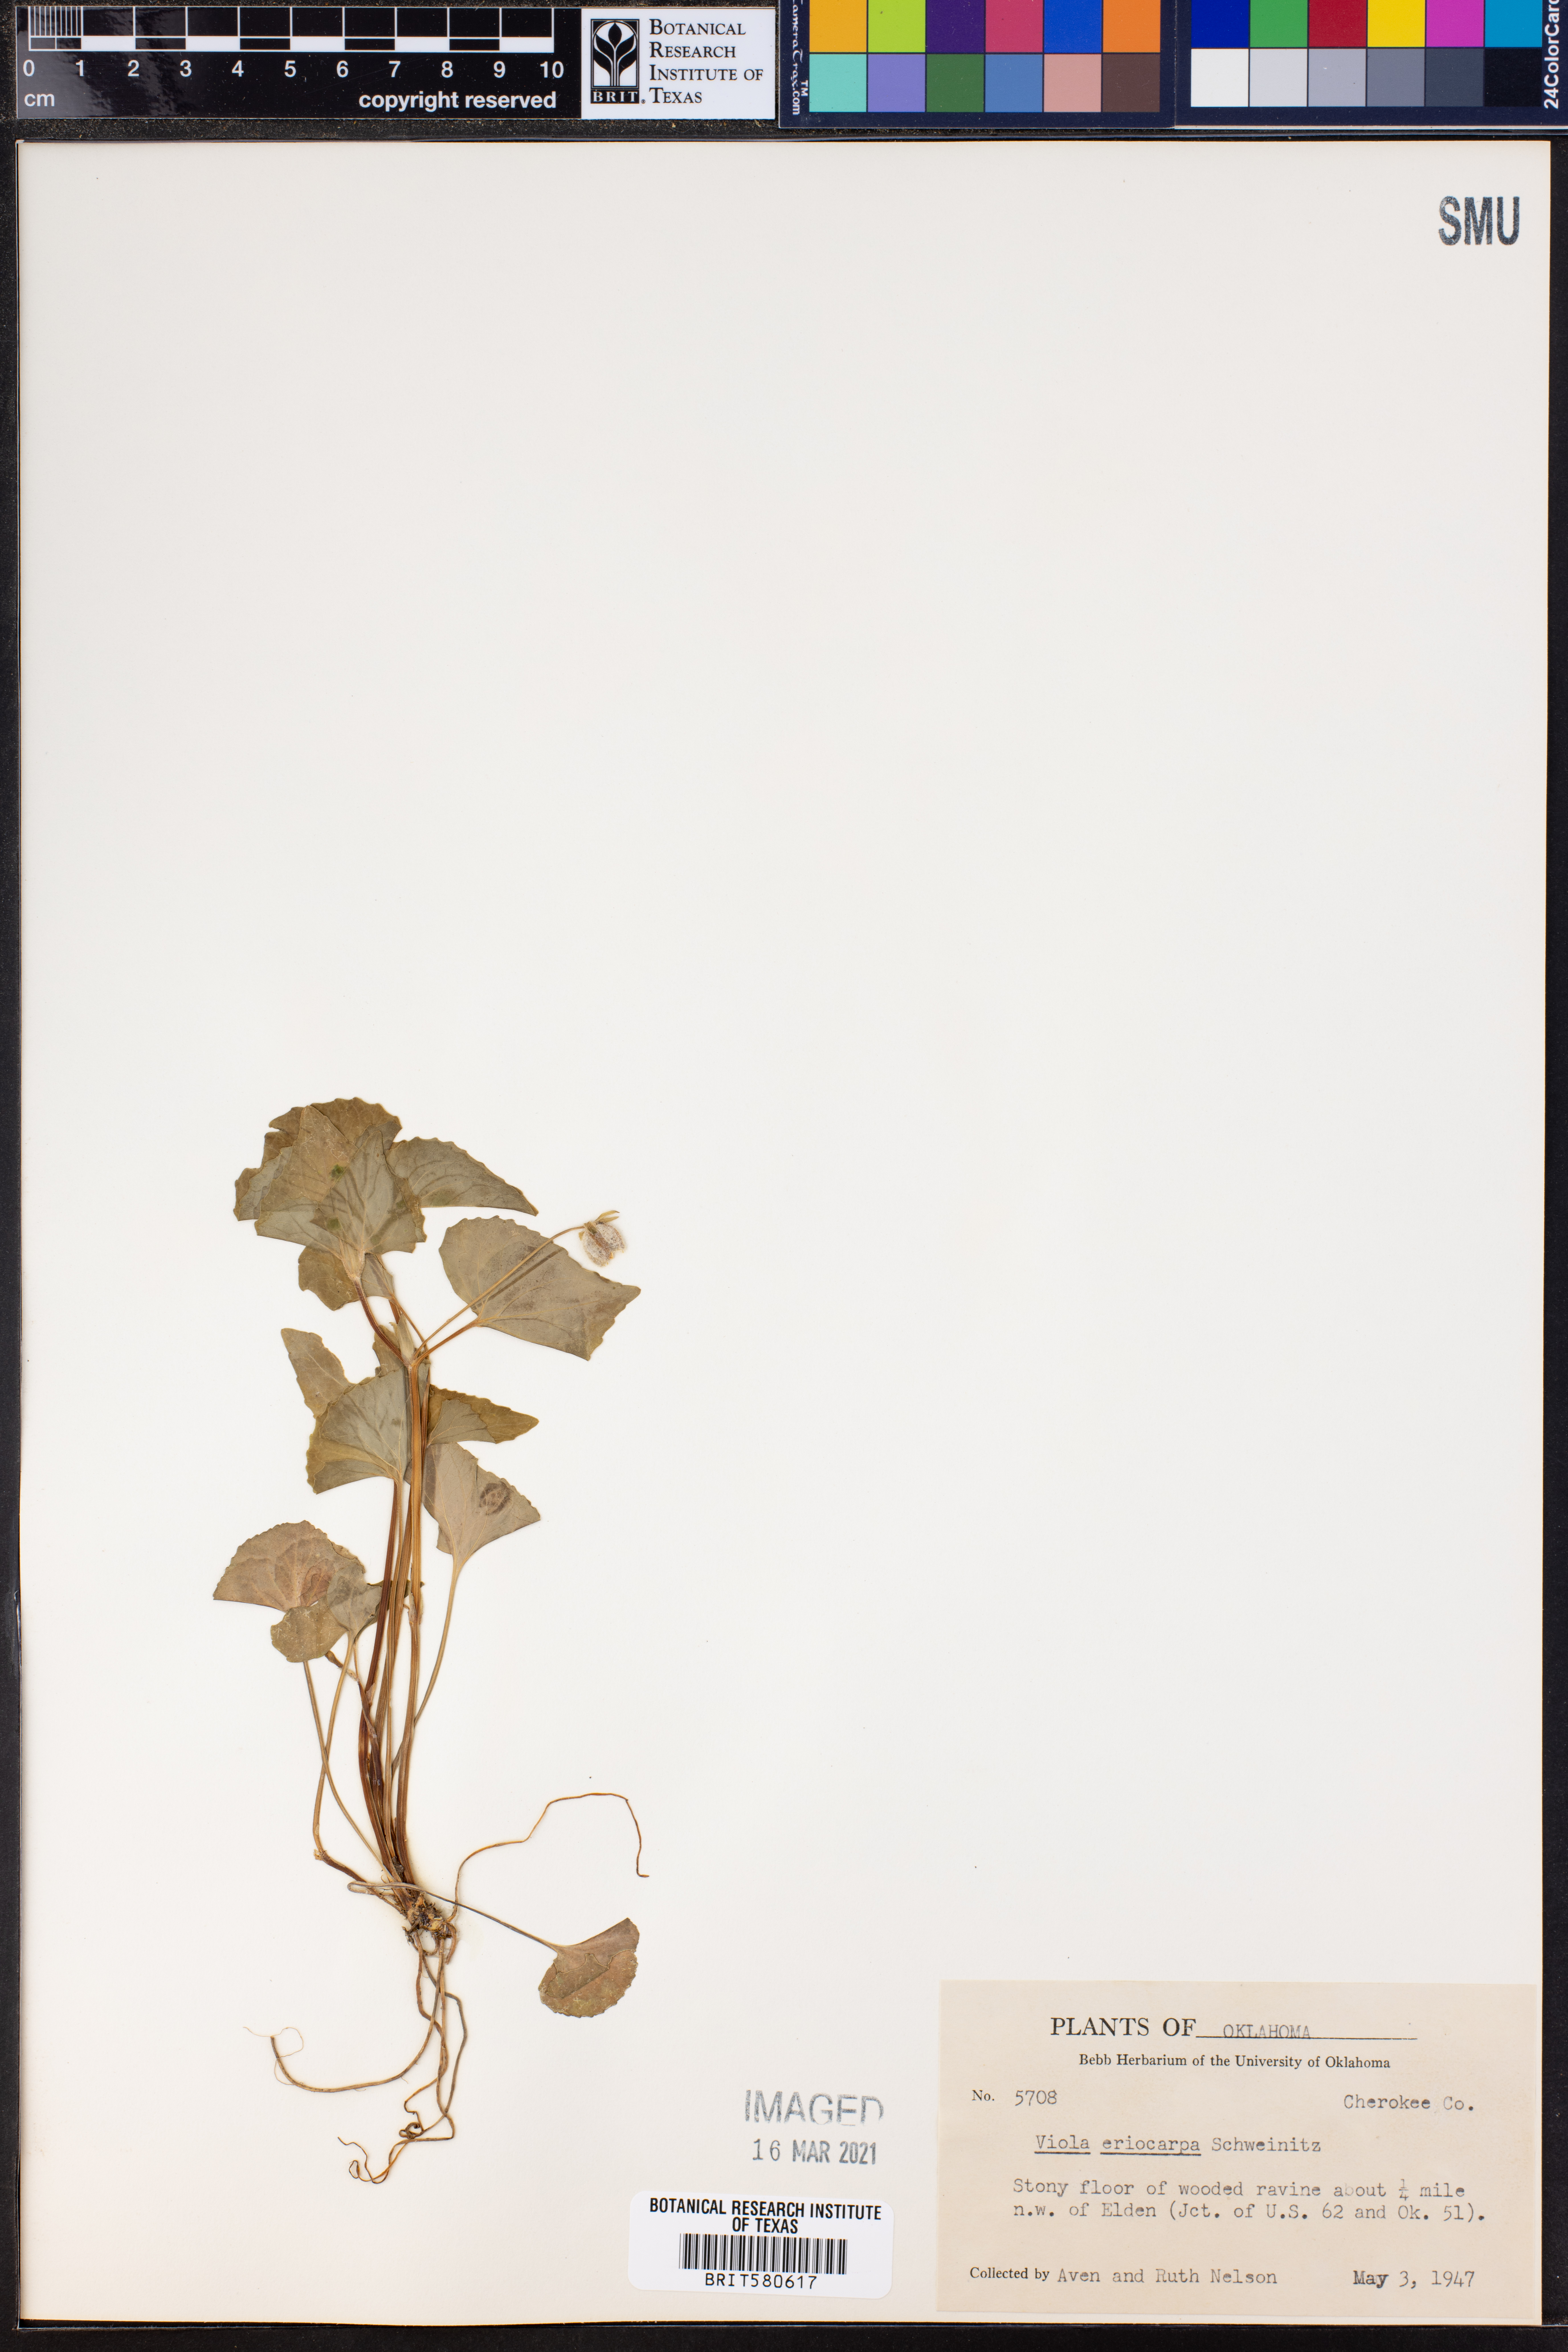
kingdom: Plantae
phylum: Tracheophyta
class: Magnoliopsida
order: Malpighiales
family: Violaceae
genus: Viola
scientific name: Viola eriocarpa
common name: Smooth yellow violet
